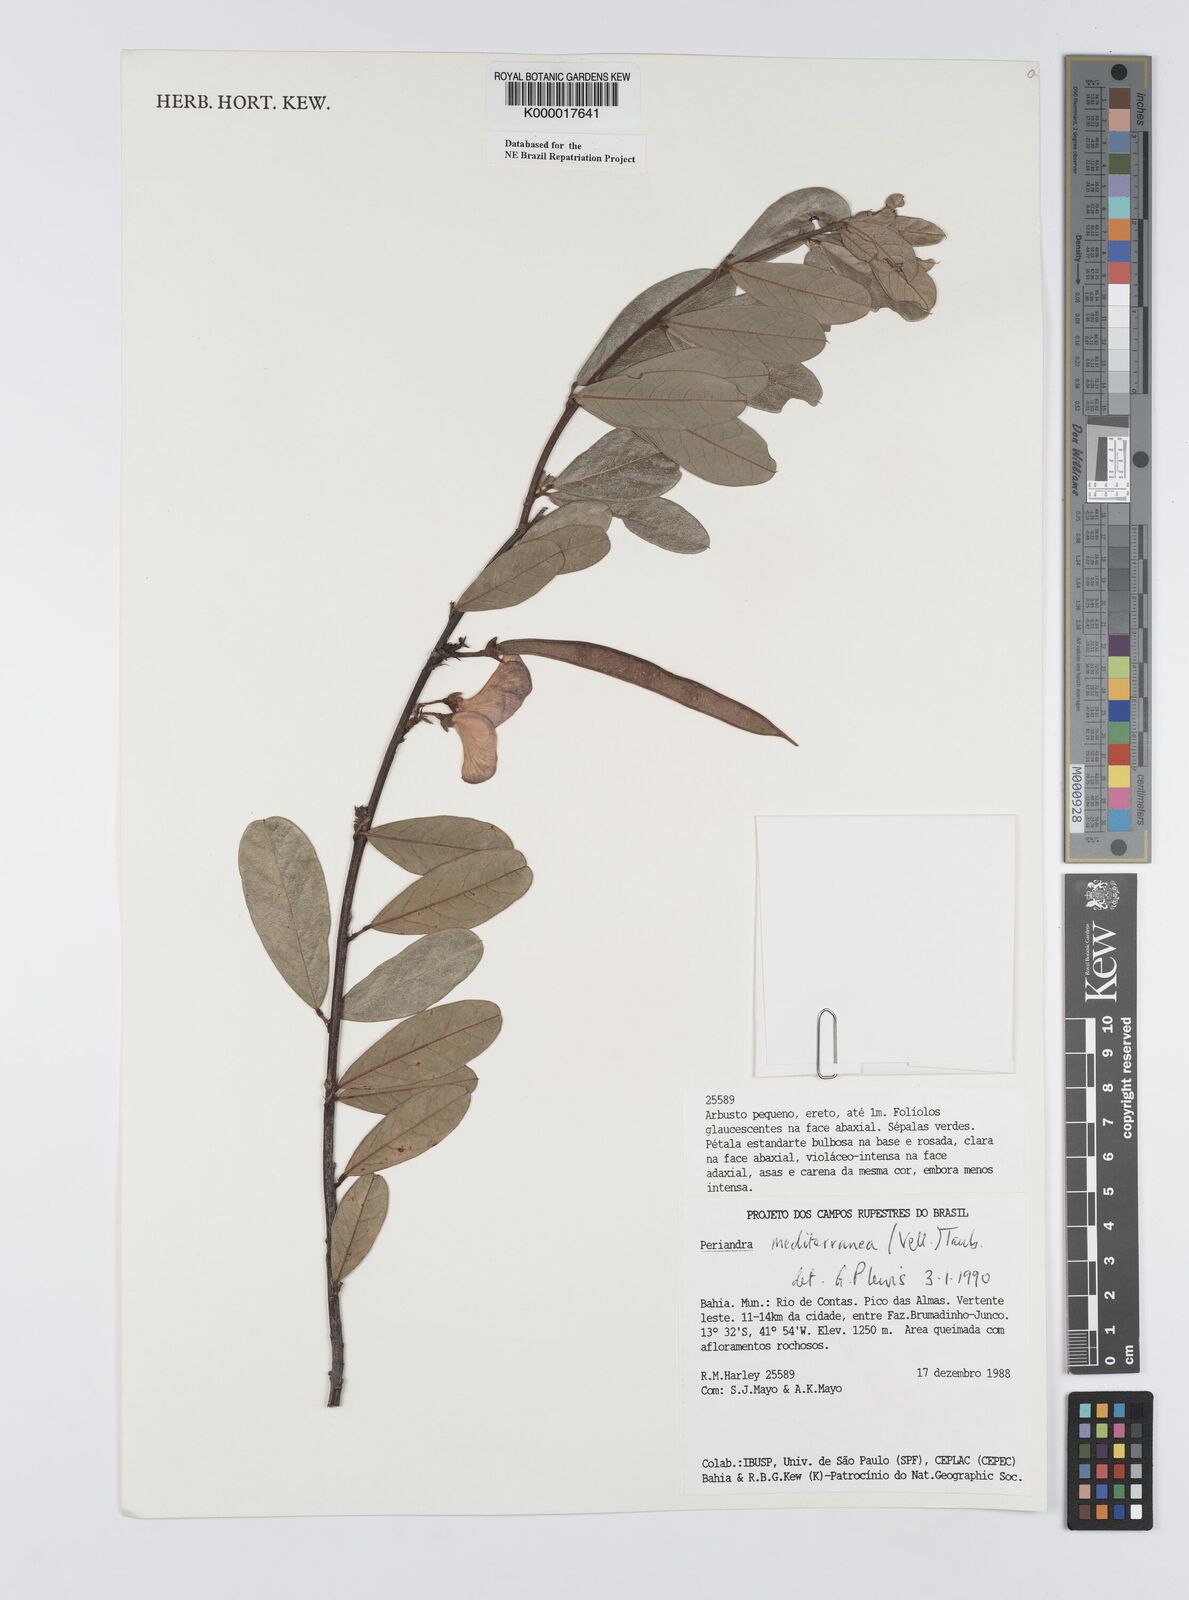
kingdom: Plantae
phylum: Tracheophyta
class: Magnoliopsida
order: Fabales
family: Fabaceae
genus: Periandra
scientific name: Periandra mediterranea
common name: Brazilian licorice
